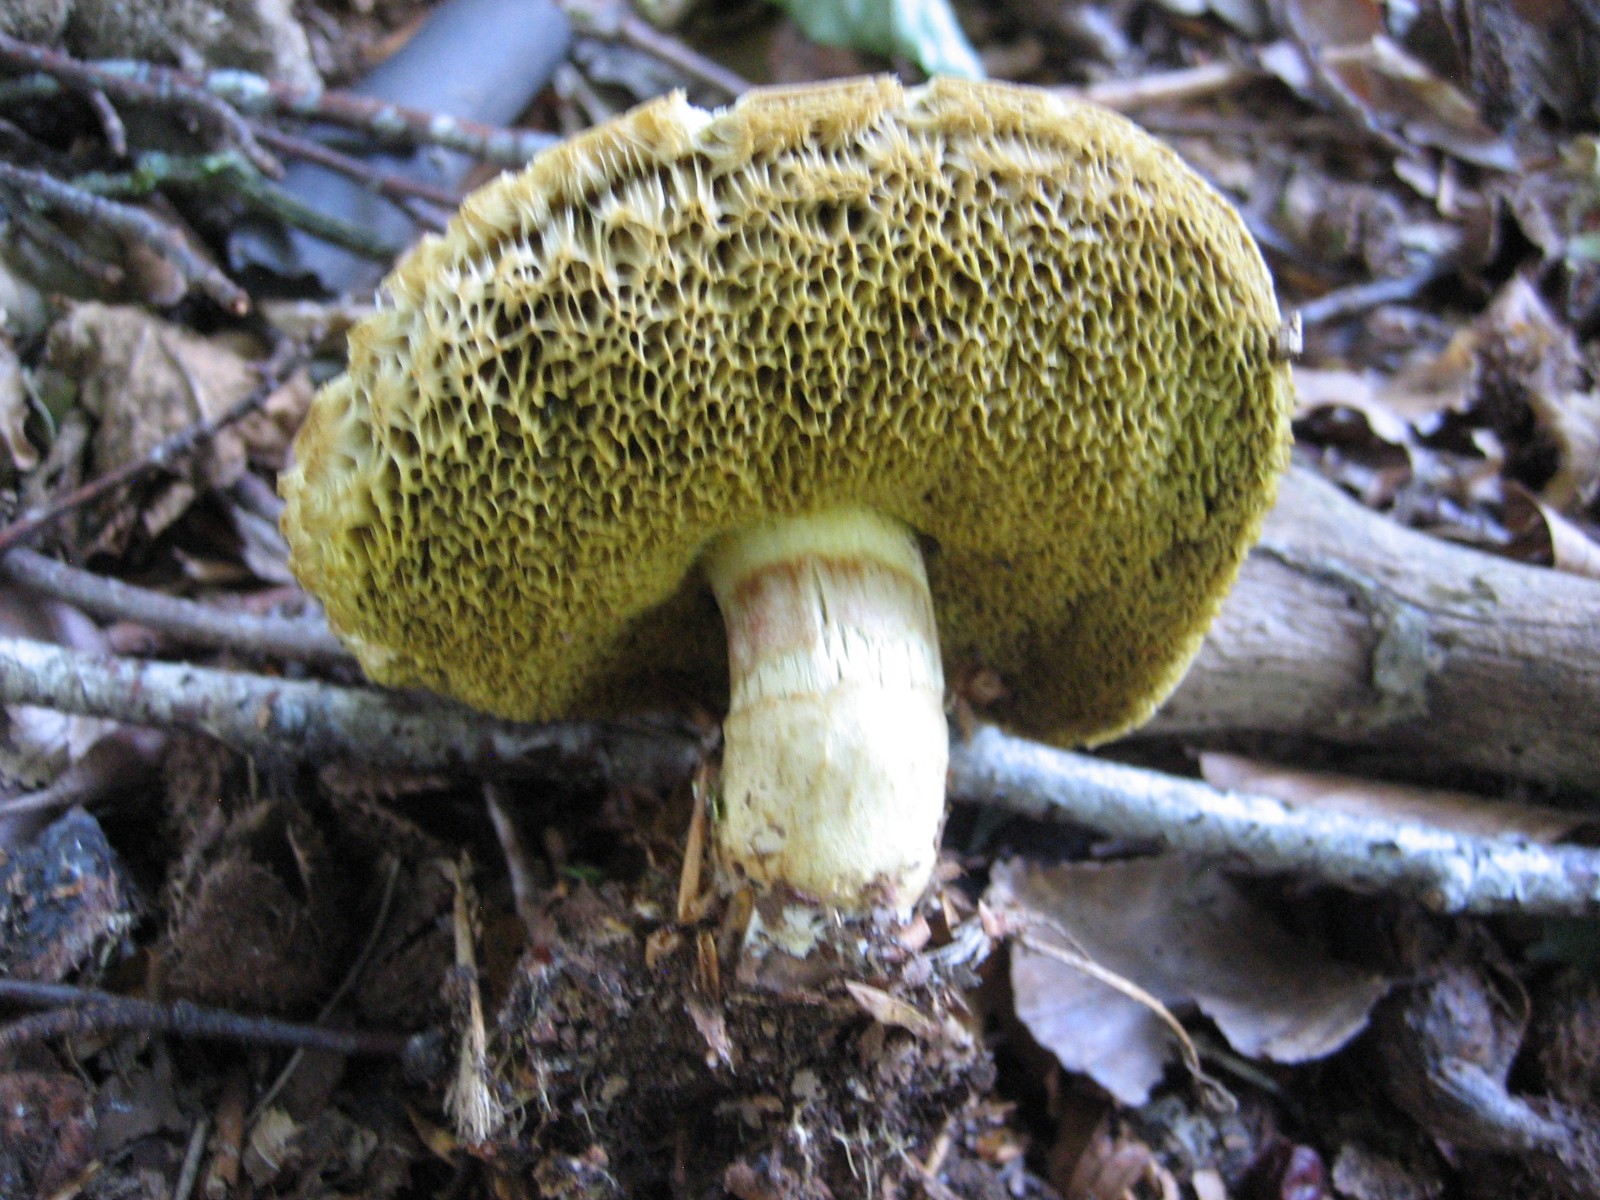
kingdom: Fungi
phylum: Basidiomycota
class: Agaricomycetes
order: Boletales
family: Boletaceae
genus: Xerocomellus
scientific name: Xerocomellus porosporus
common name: hvidsprukken rørhat
